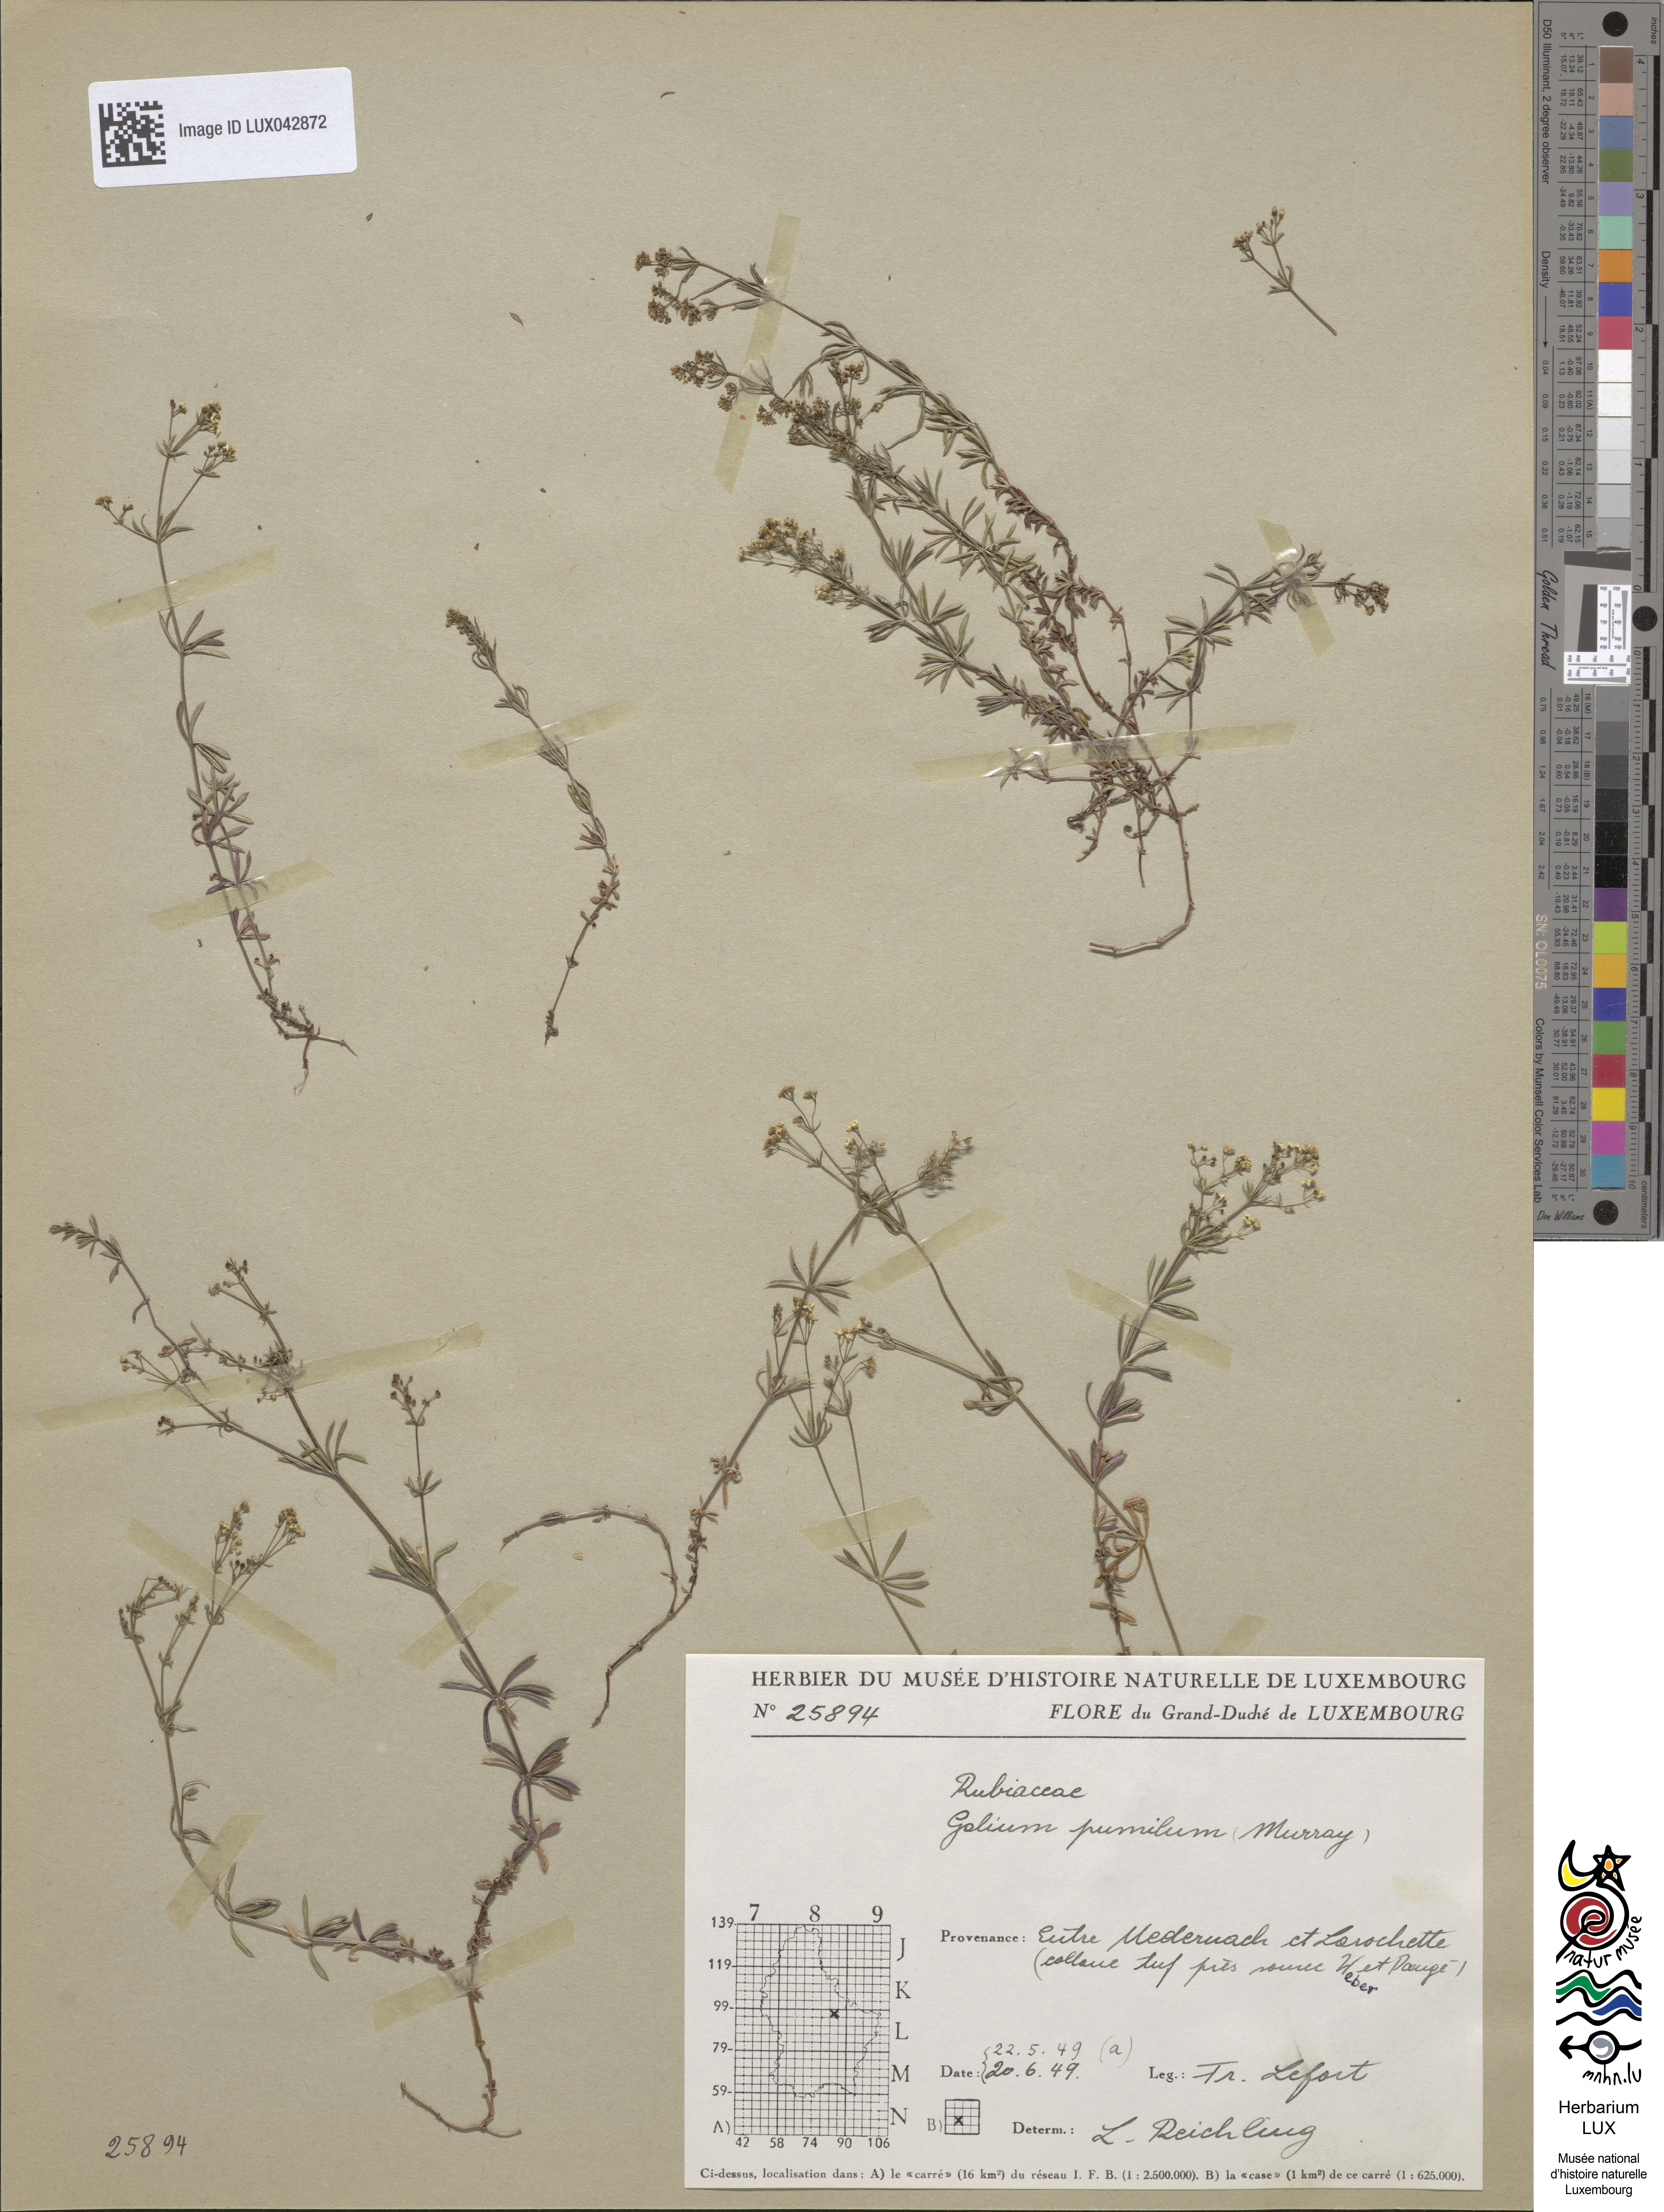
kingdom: Plantae
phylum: Tracheophyta
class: Magnoliopsida
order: Gentianales
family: Rubiaceae
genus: Galium
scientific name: Galium pumilum
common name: Slender bedstraw
